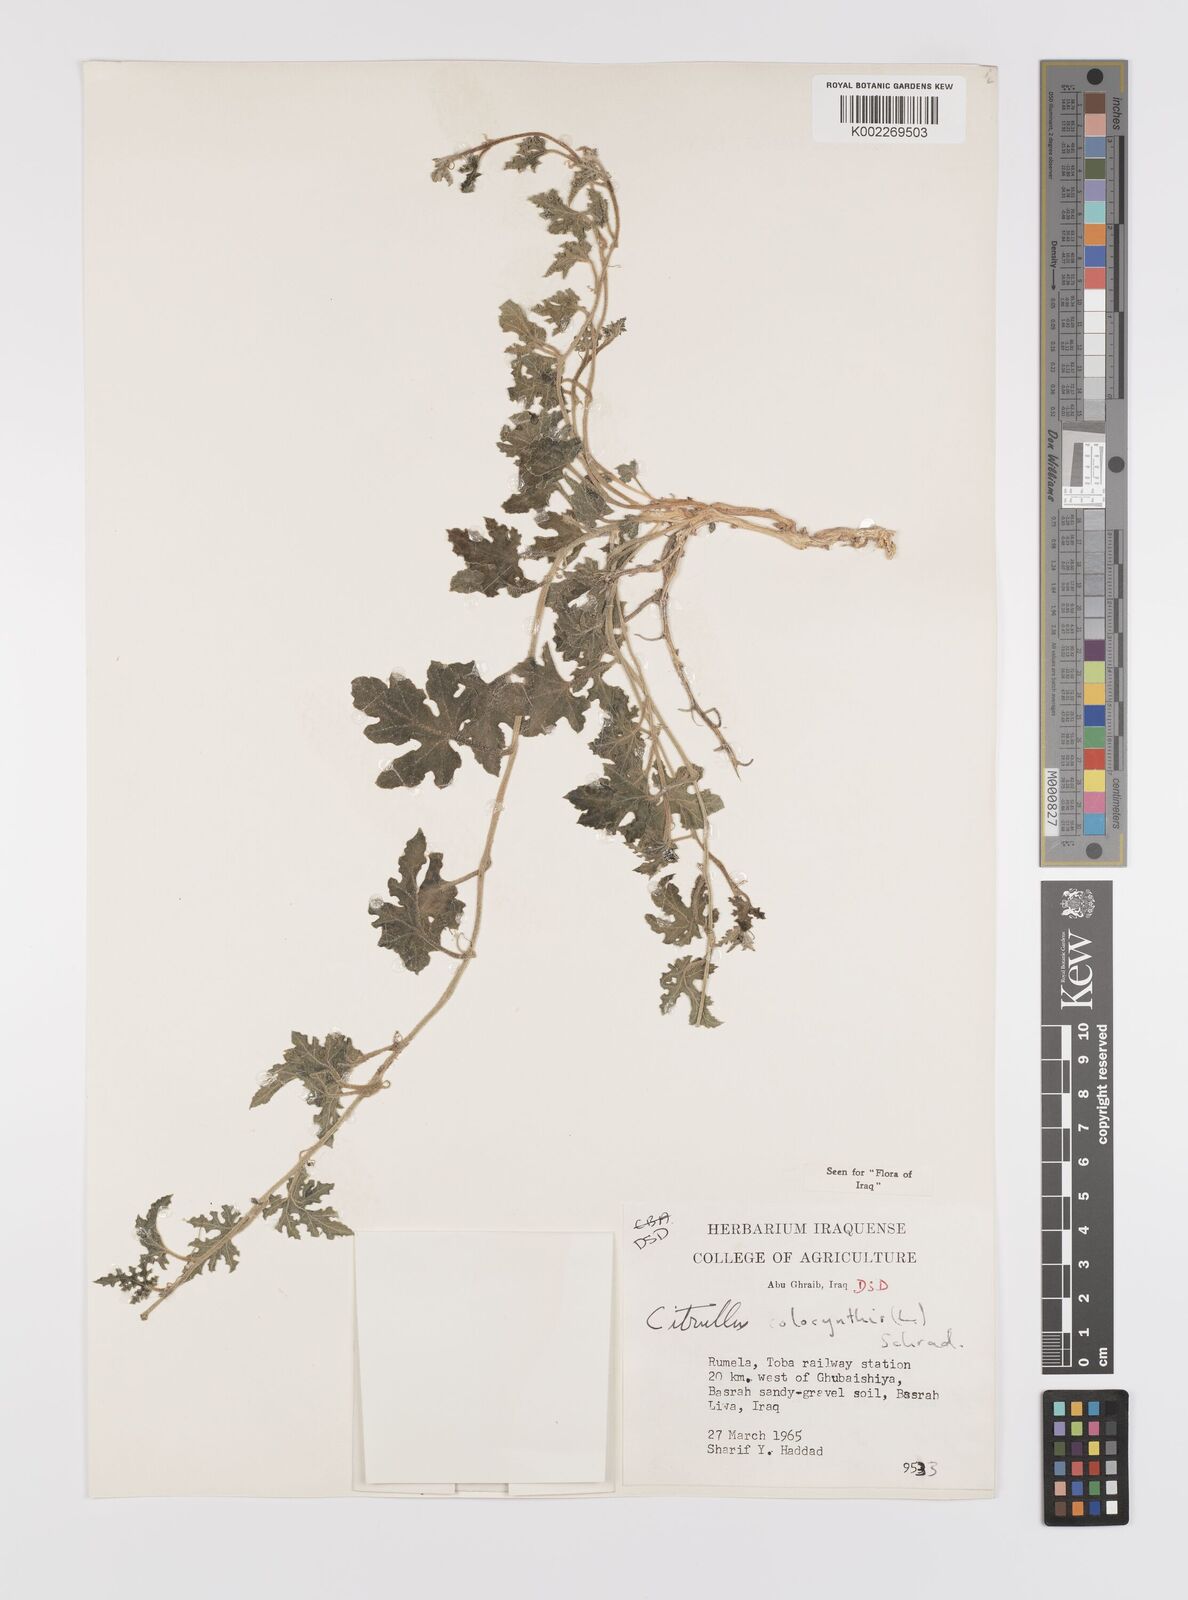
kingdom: Plantae
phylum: Tracheophyta
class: Magnoliopsida
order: Cucurbitales
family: Cucurbitaceae
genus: Citrullus
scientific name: Citrullus colocynthis
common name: Colocynth
